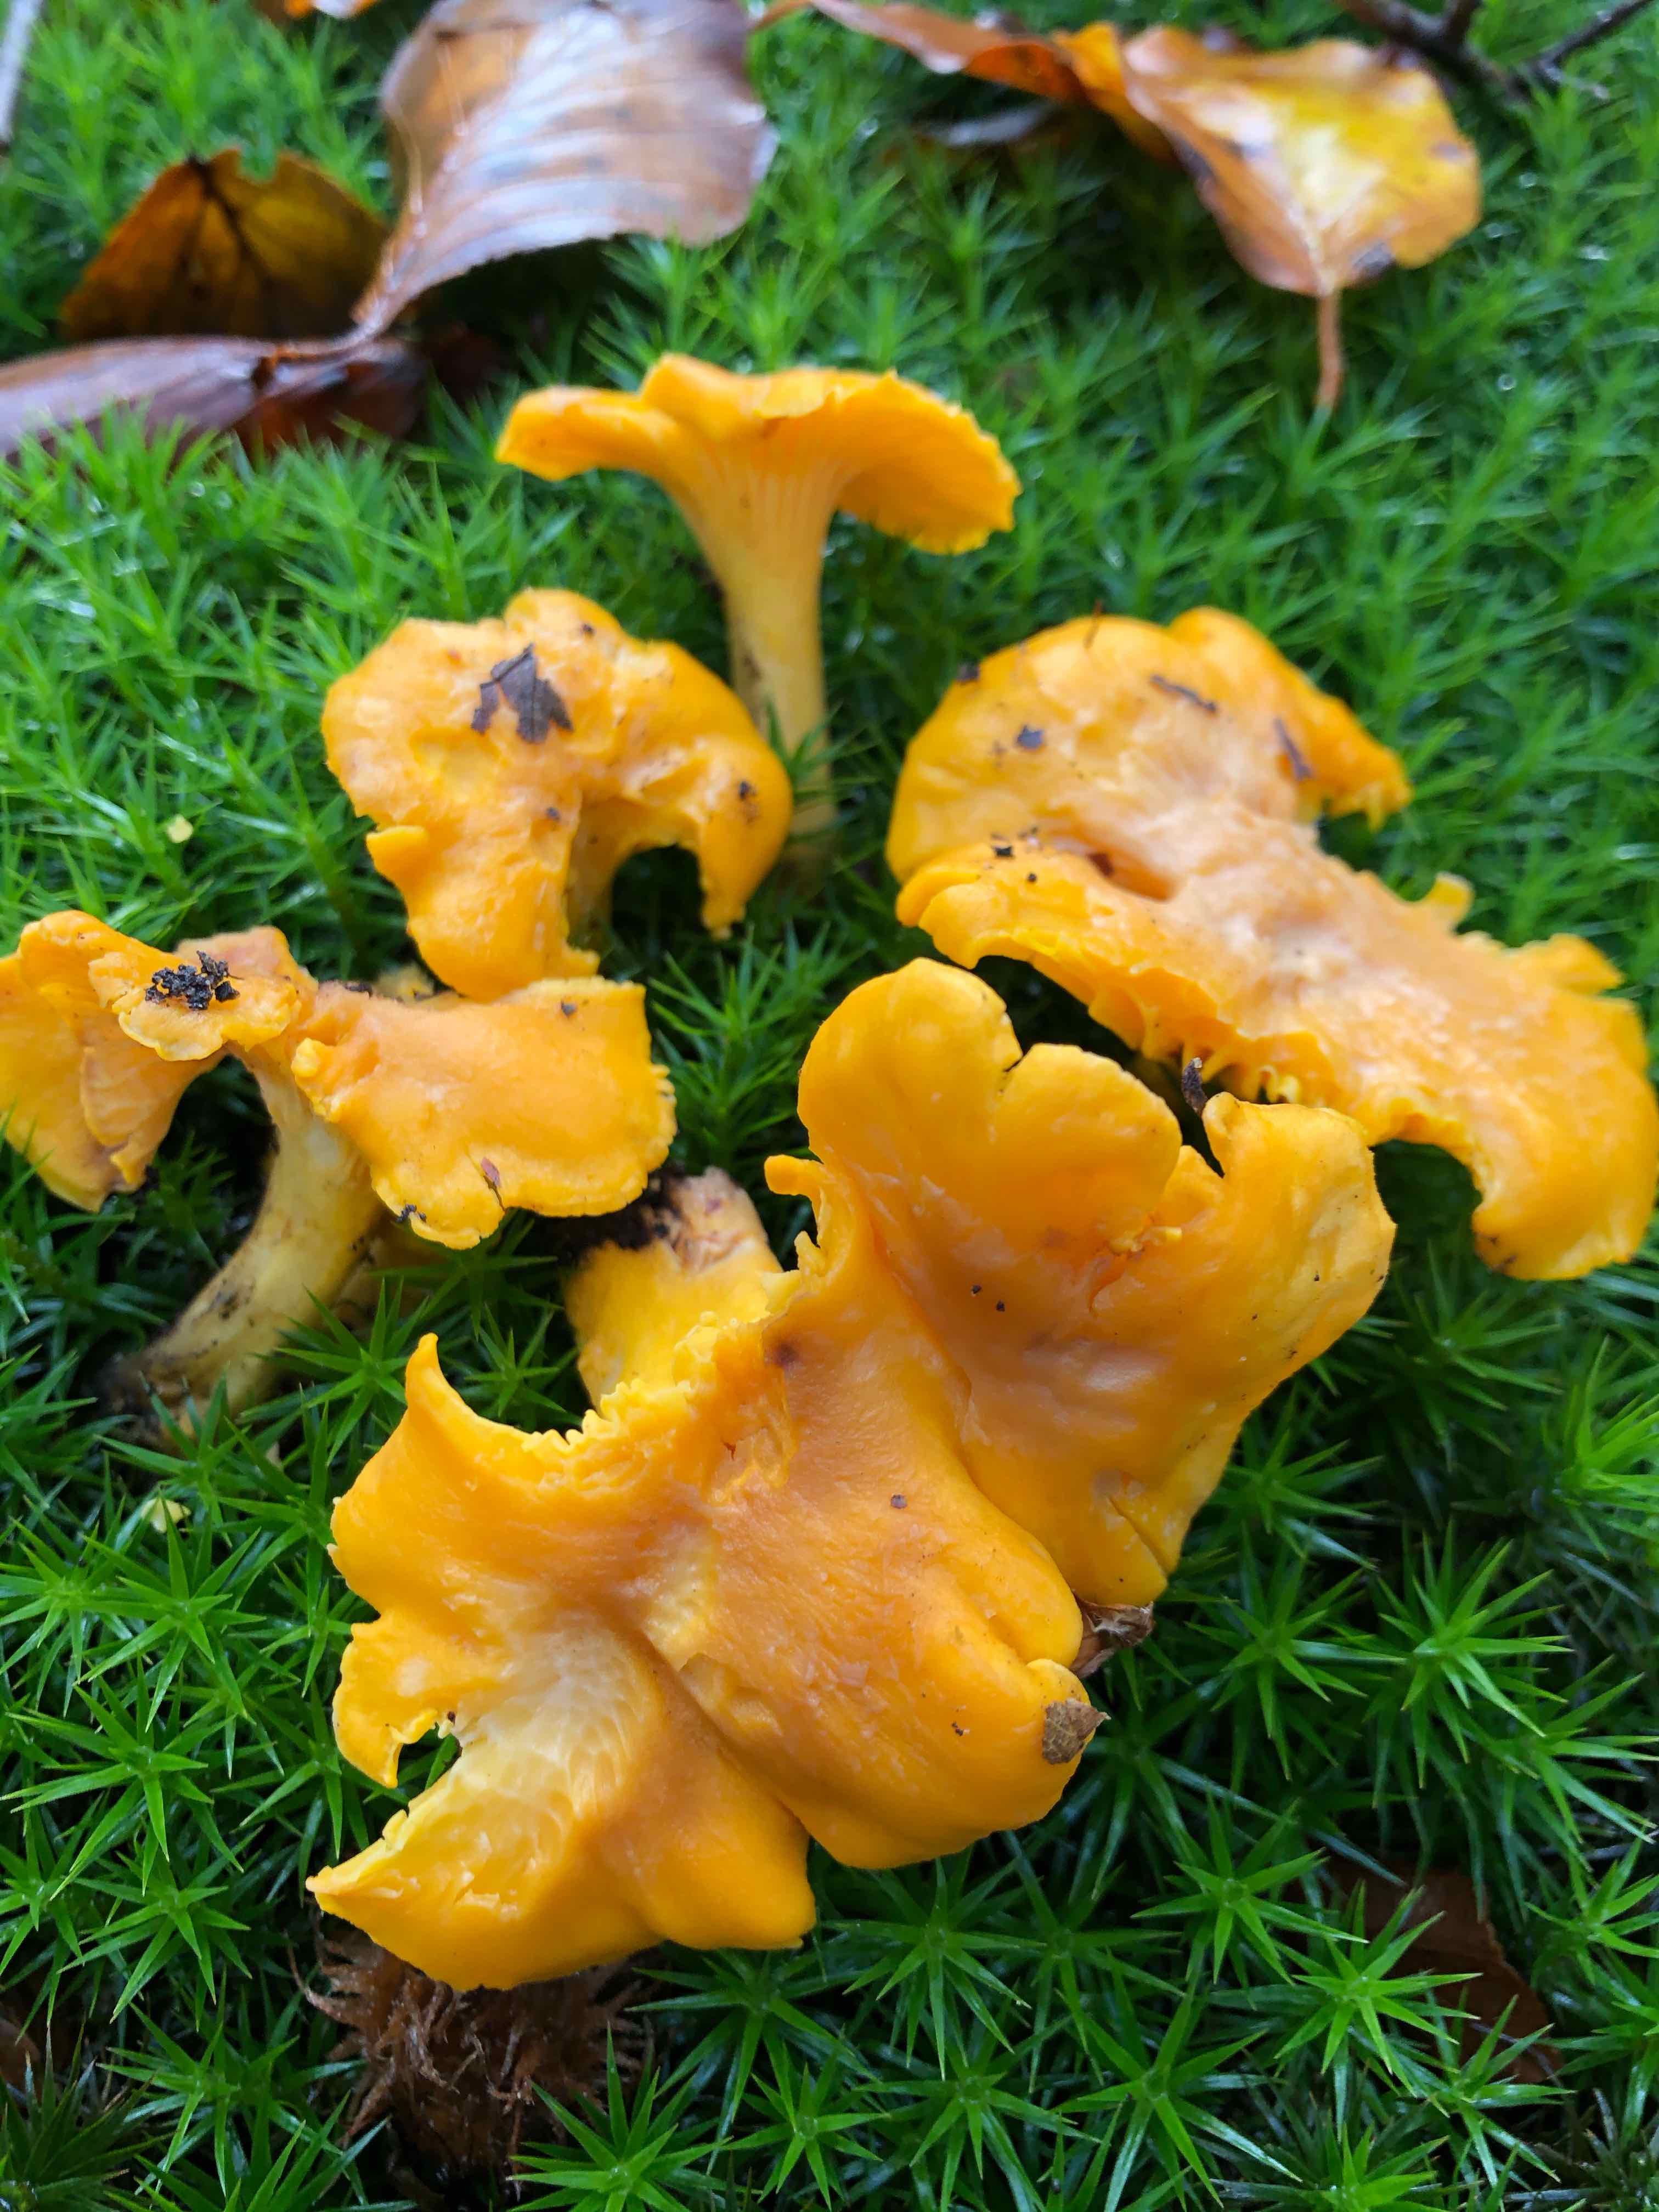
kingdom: Fungi
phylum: Basidiomycota
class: Agaricomycetes
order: Cantharellales
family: Hydnaceae
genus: Cantharellus
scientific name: Cantharellus cibarius
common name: almindelig kantarel
